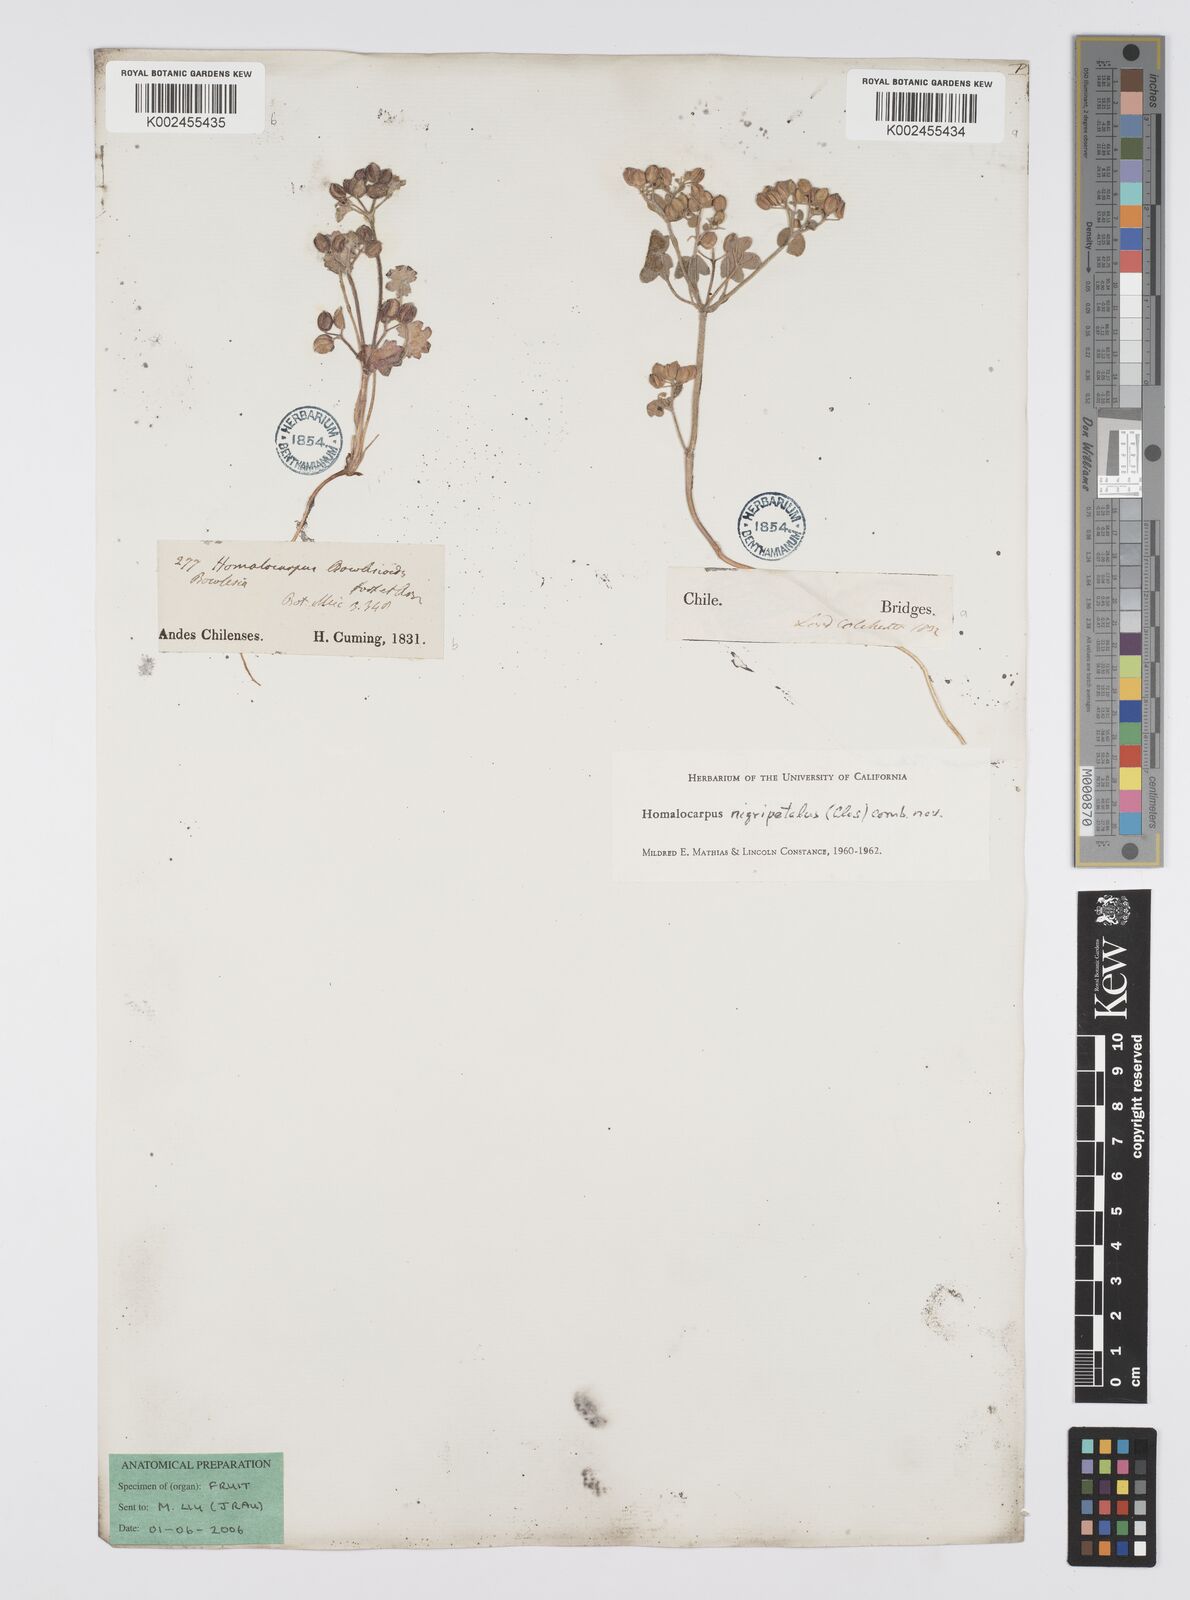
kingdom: Plantae
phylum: Tracheophyta
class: Magnoliopsida
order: Apiales
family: Apiaceae
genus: Homalocarpus
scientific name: Homalocarpus nigripetalus
